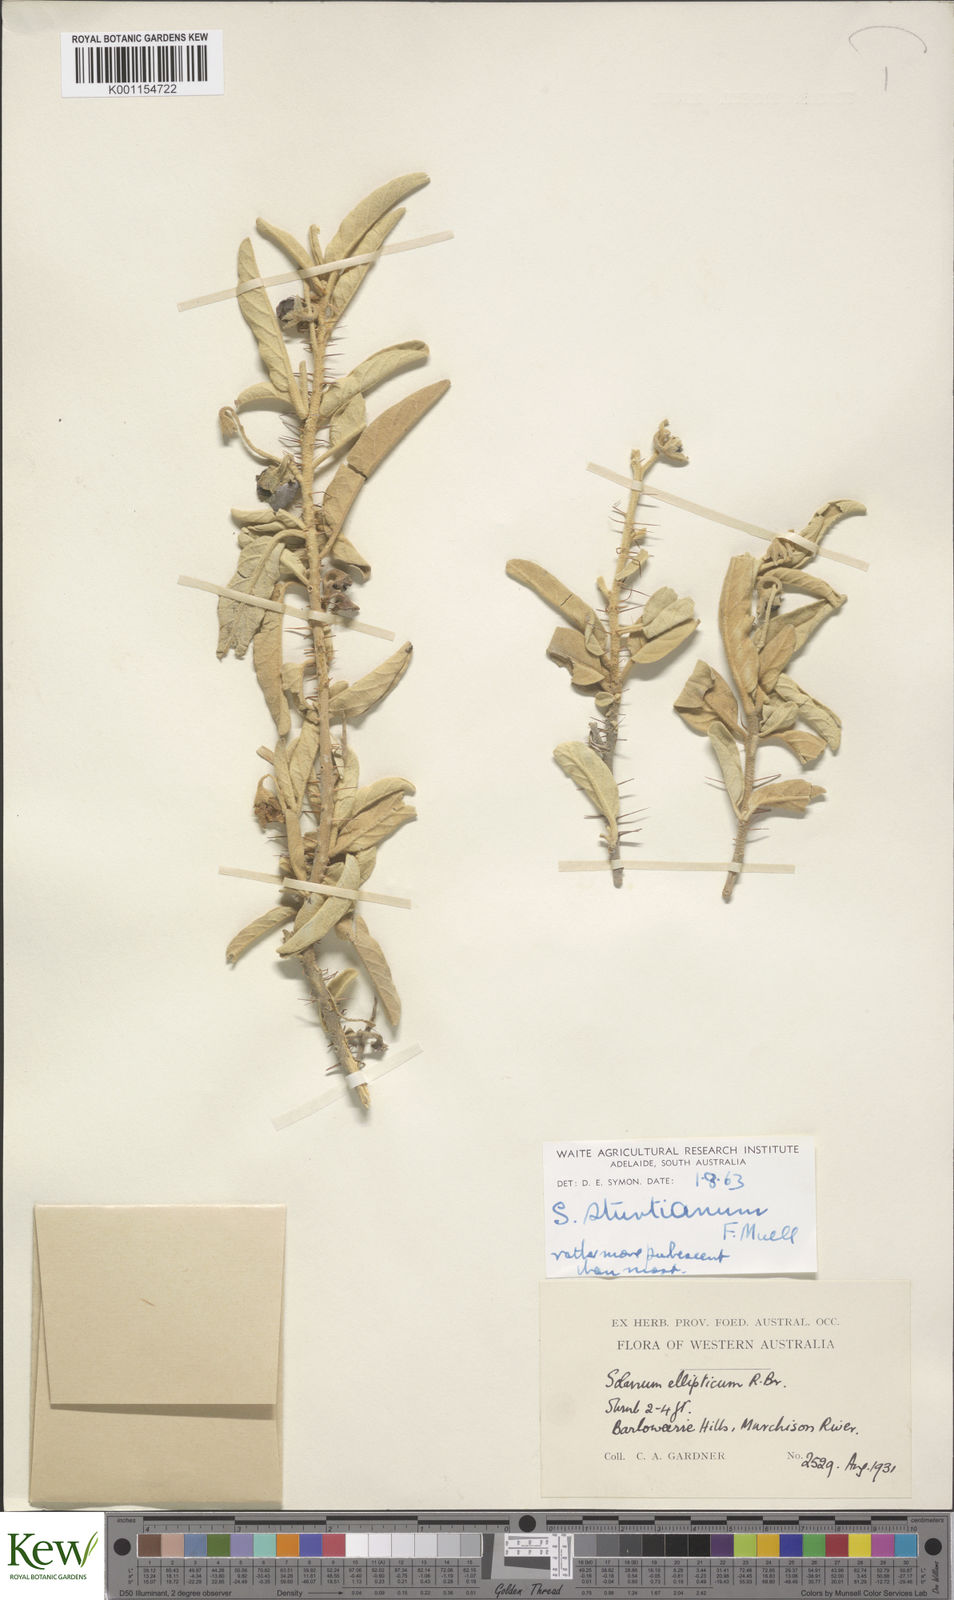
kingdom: Plantae
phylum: Tracheophyta
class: Magnoliopsida
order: Solanales
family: Solanaceae
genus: Solanum
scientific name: Solanum sturtianum
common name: Thargomindah nightshade
